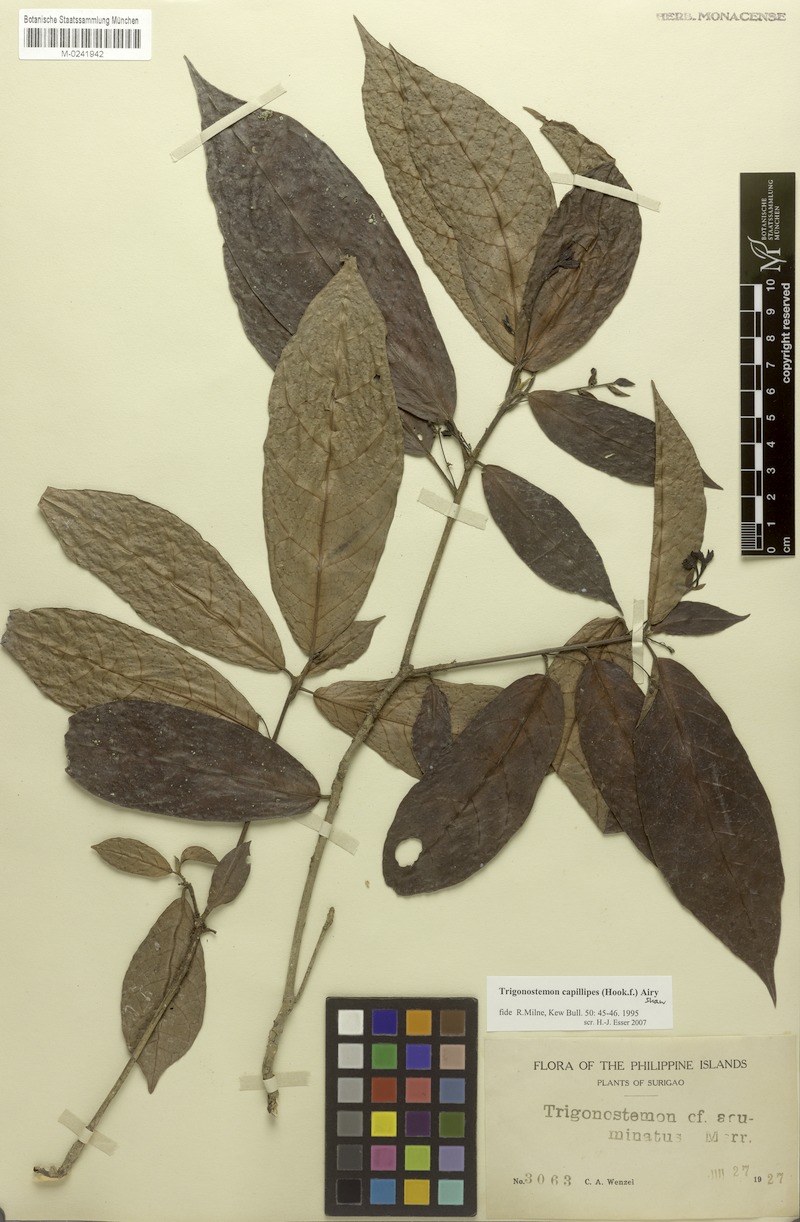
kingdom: Plantae
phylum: Tracheophyta
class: Magnoliopsida
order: Malpighiales
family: Euphorbiaceae
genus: Trigonostemon
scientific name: Trigonostemon villosus
